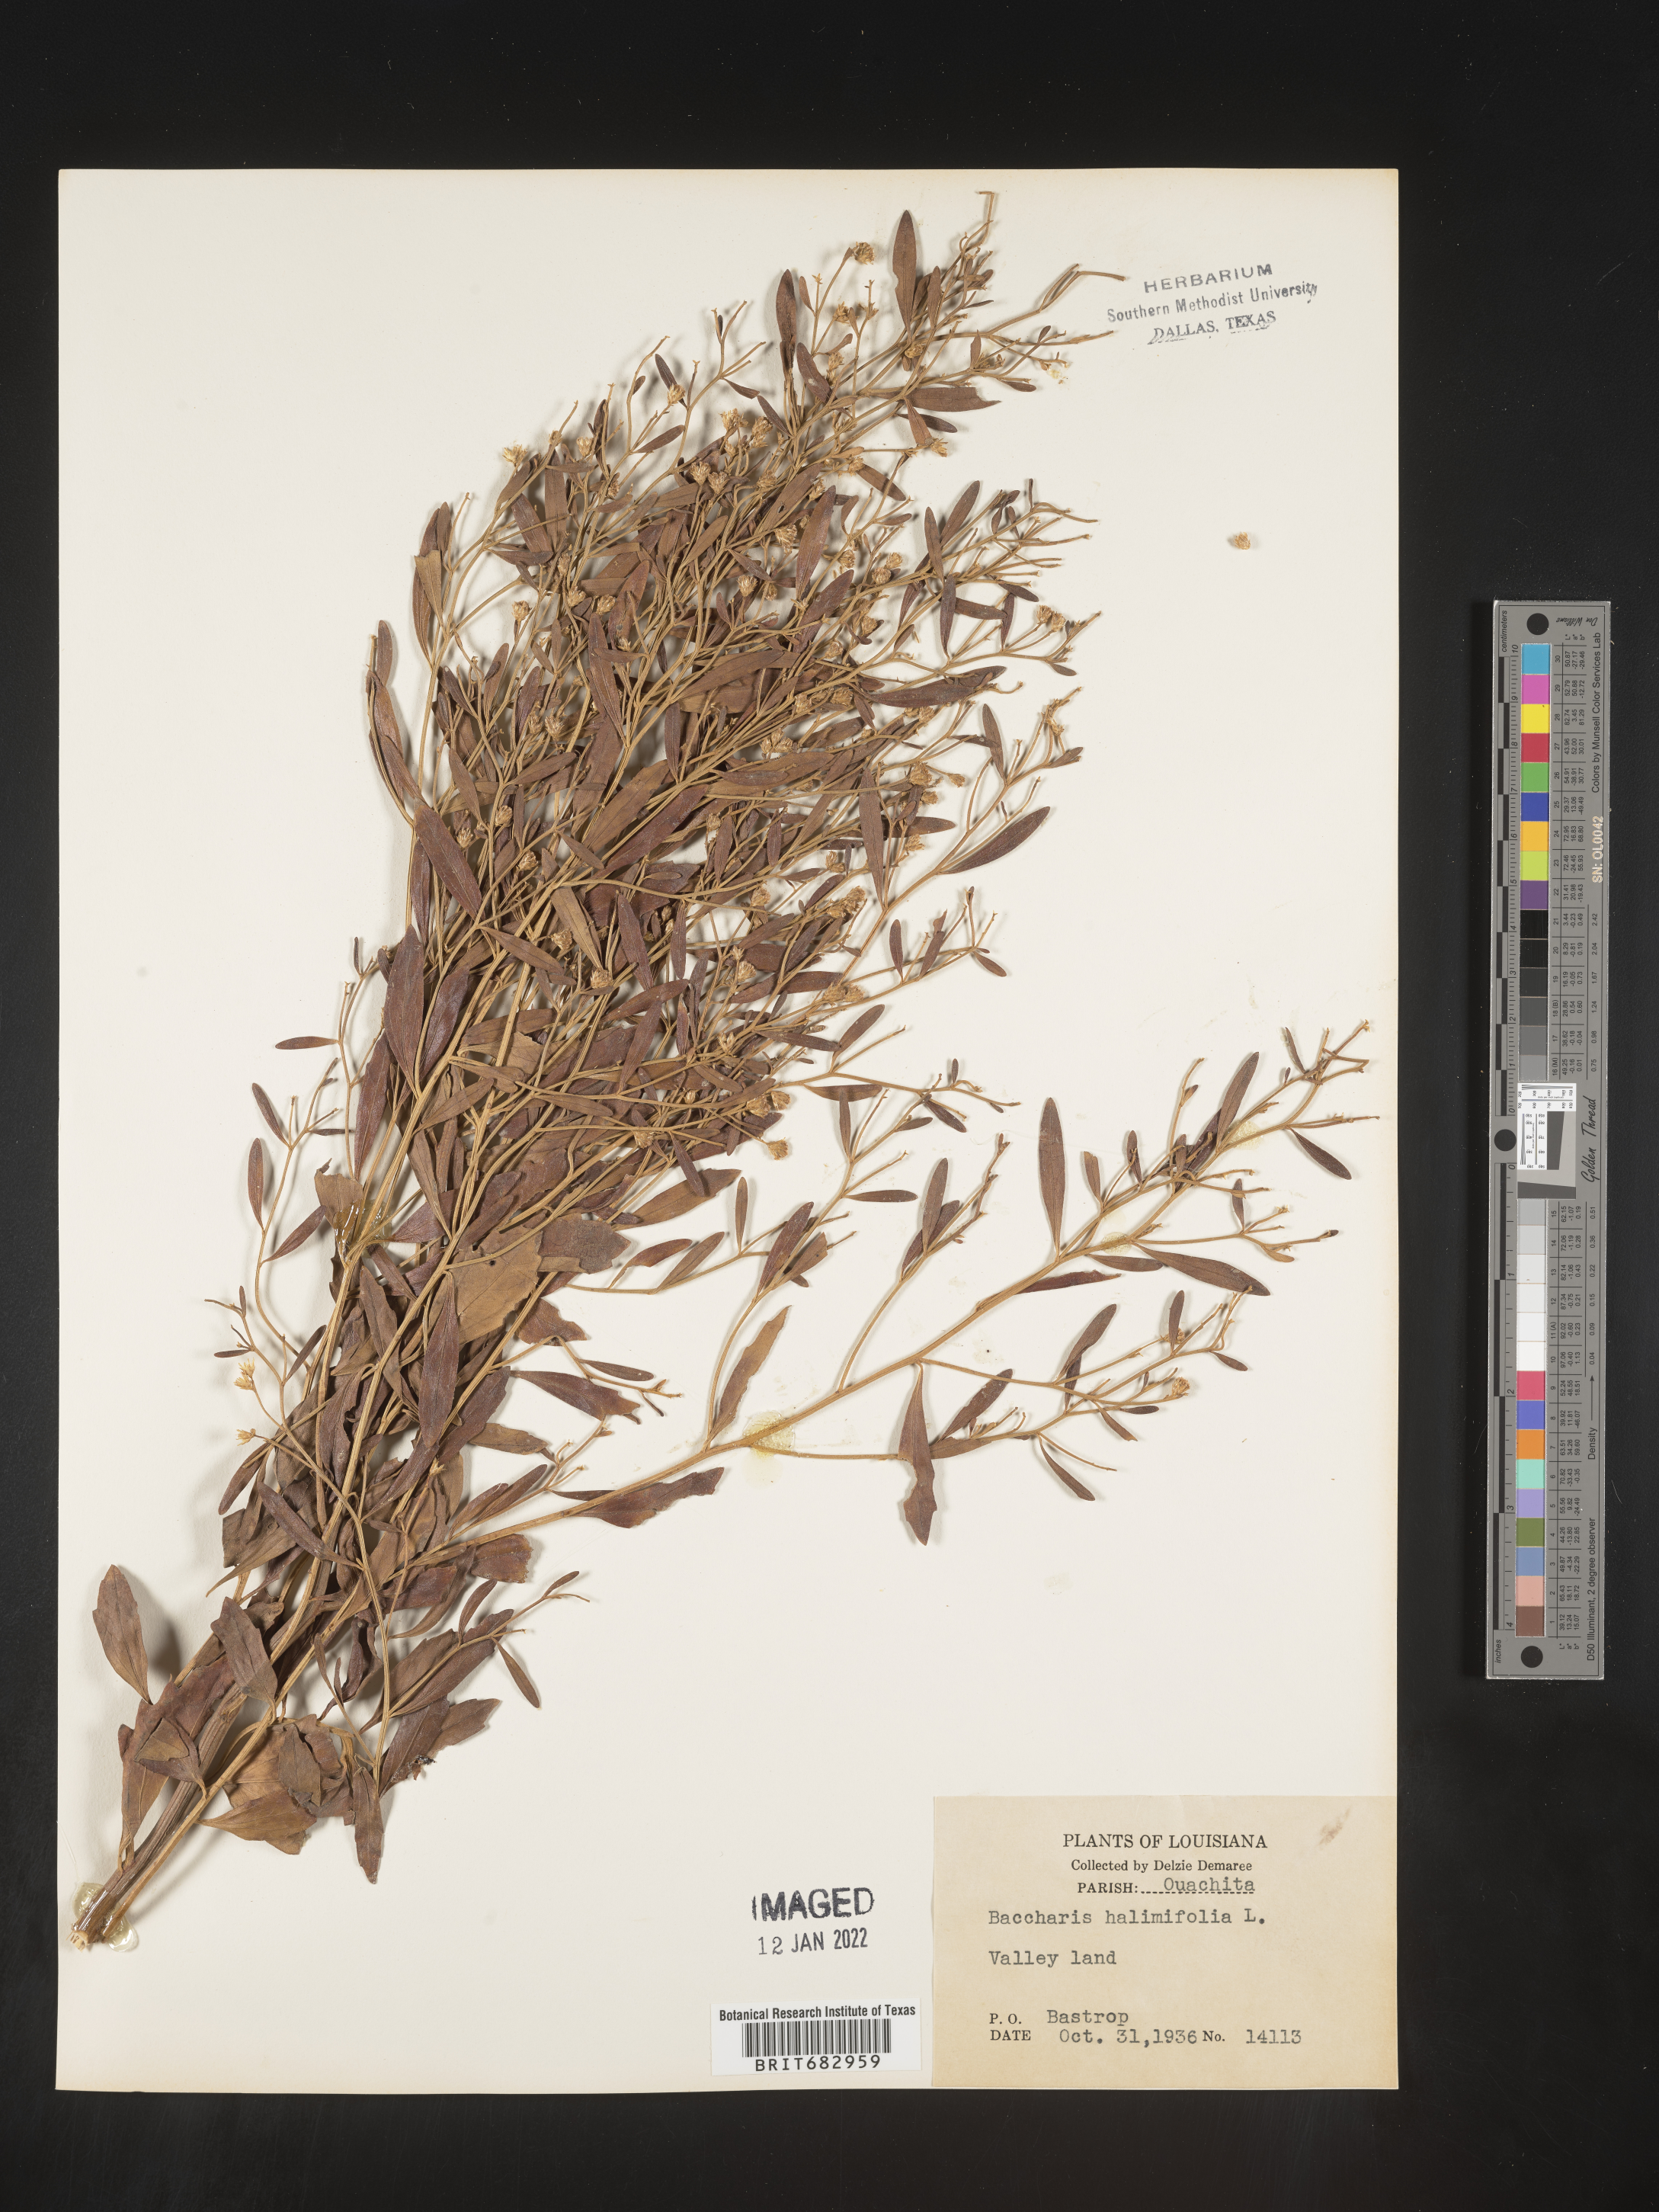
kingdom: Plantae
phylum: Tracheophyta
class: Magnoliopsida
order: Asterales
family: Asteraceae
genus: Nidorella
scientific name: Nidorella ivifolia
